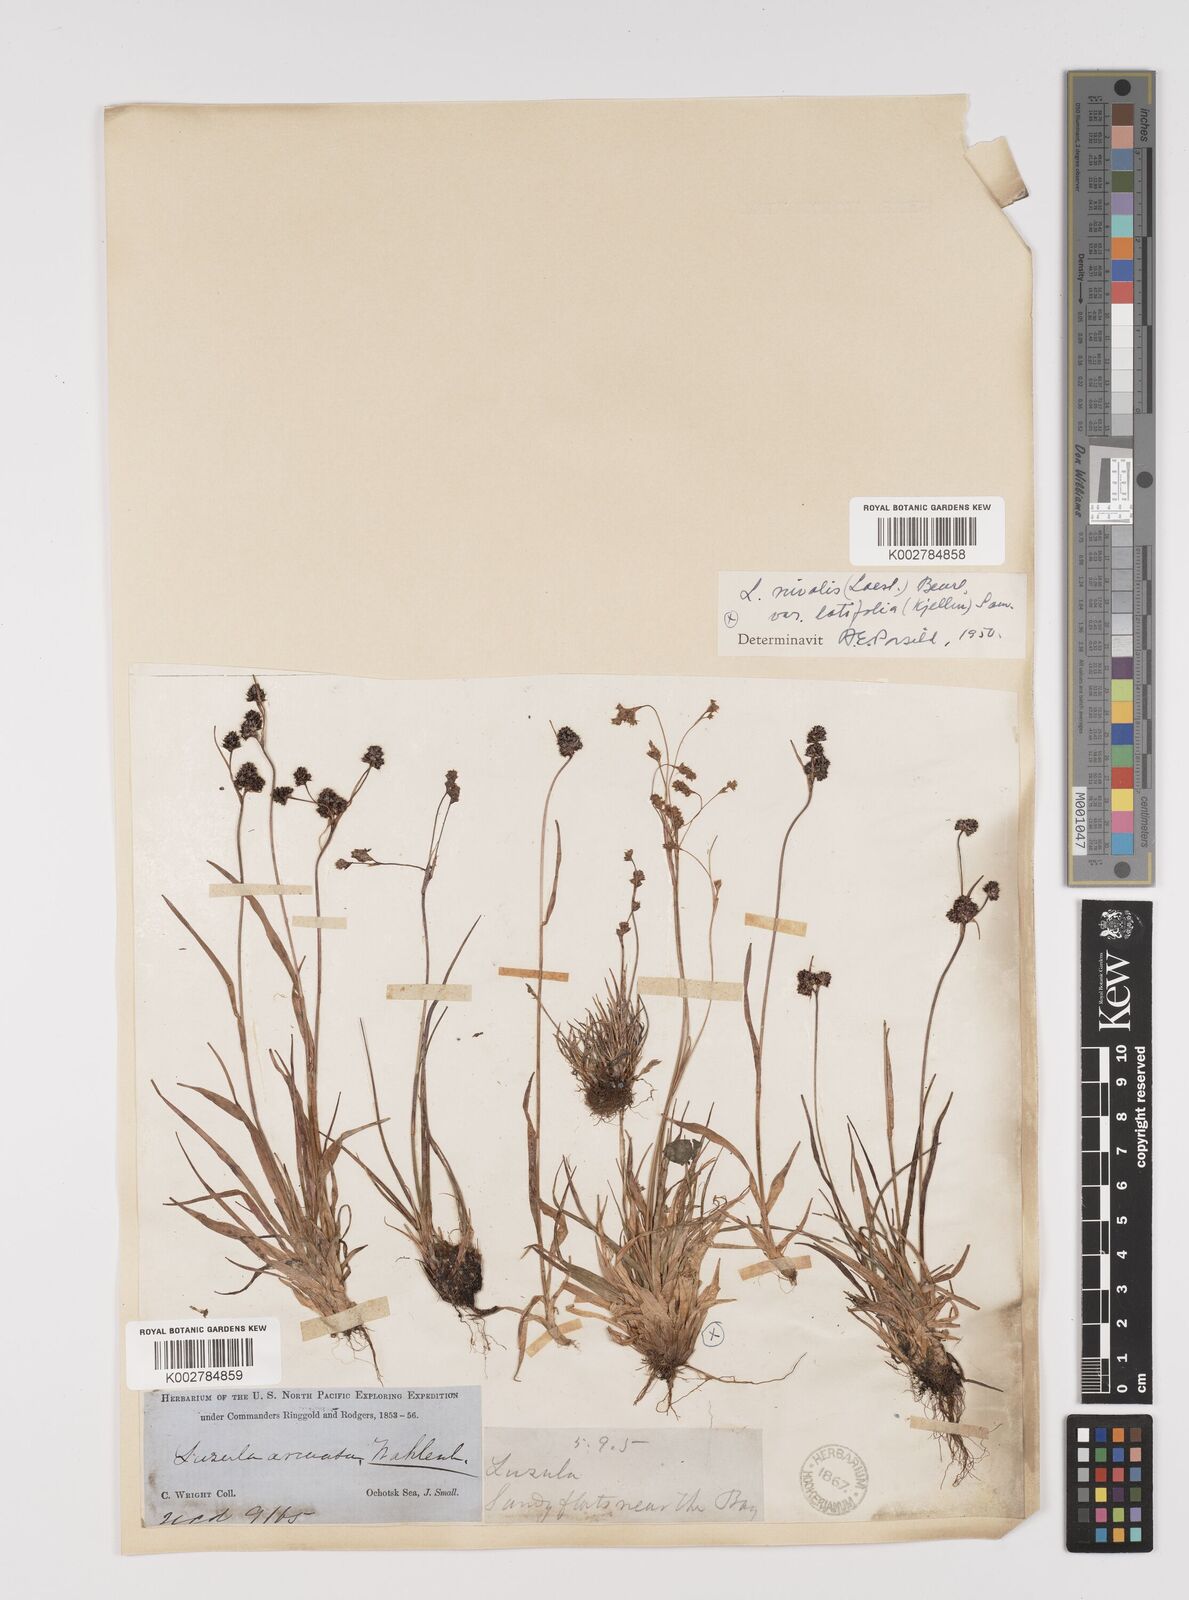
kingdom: Plantae
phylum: Tracheophyta
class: Liliopsida
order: Poales
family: Juncaceae
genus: Luzula
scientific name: Luzula confusa
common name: Northern wood rush
